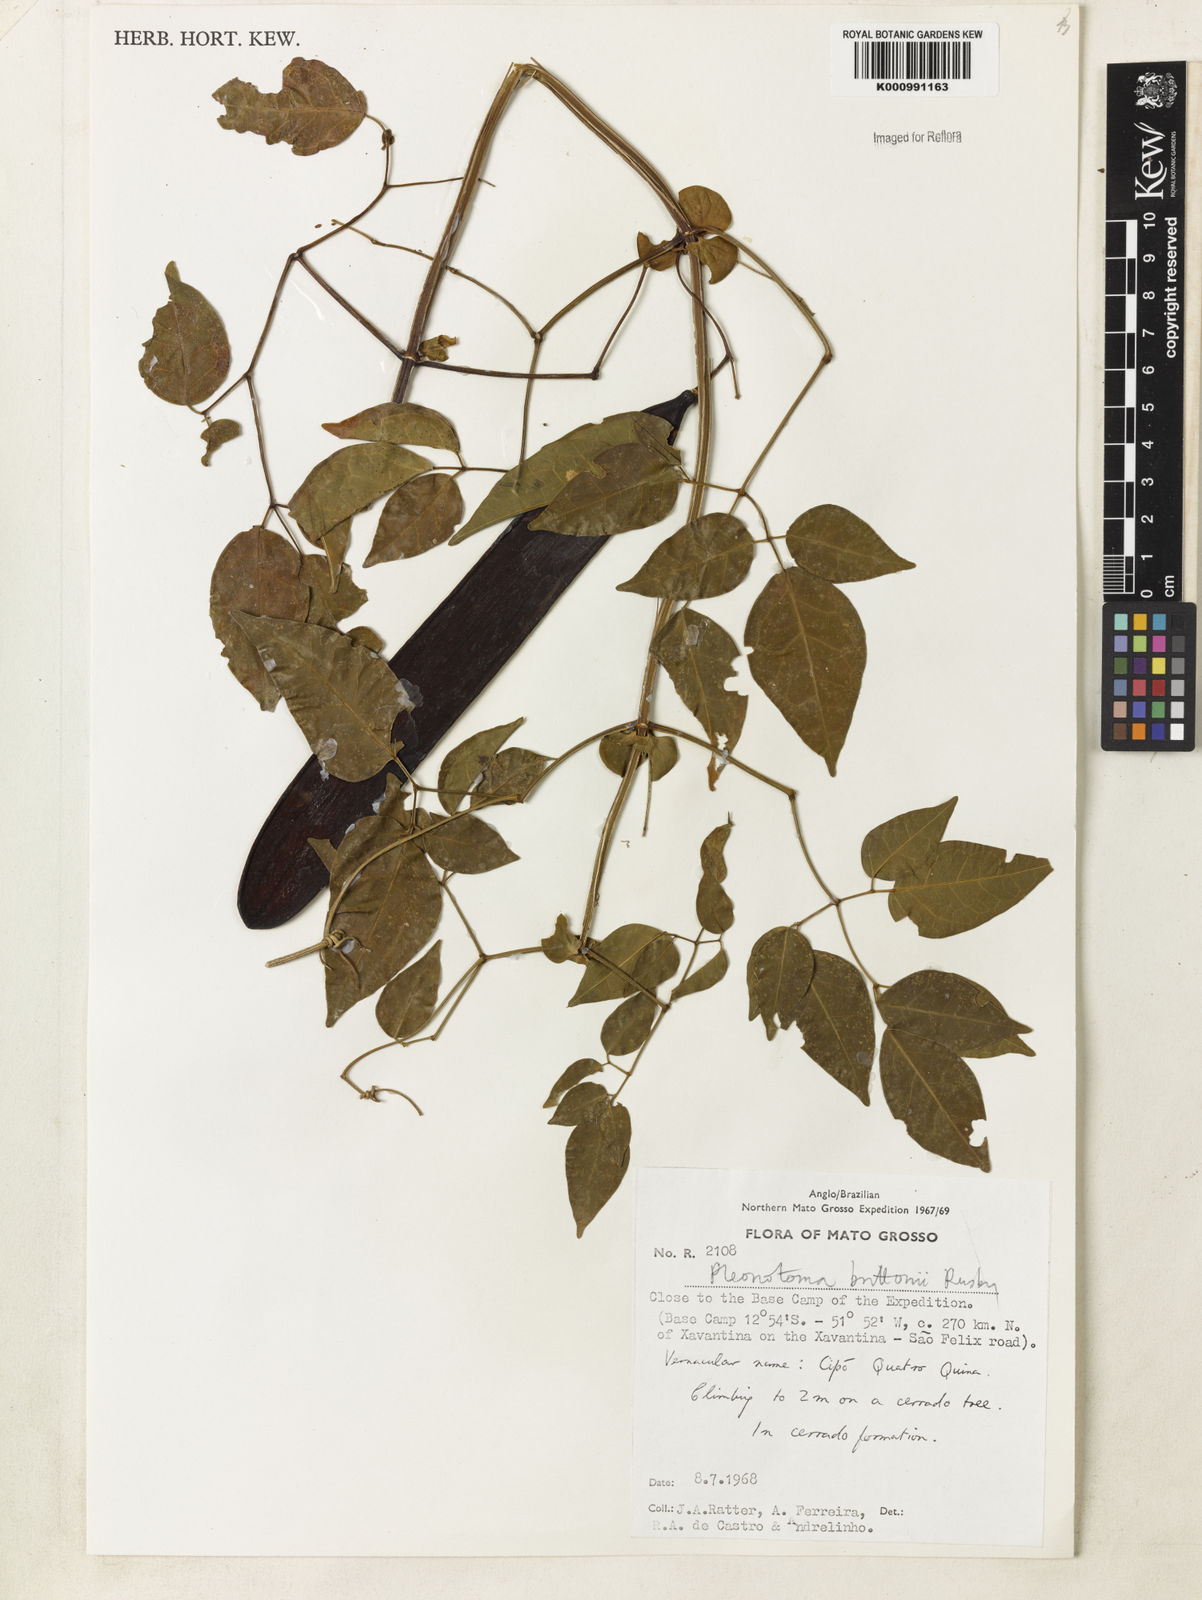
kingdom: Plantae
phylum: Tracheophyta
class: Magnoliopsida
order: Lamiales
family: Bignoniaceae
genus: Pleonotoma
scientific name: Pleonotoma jasminifolia
